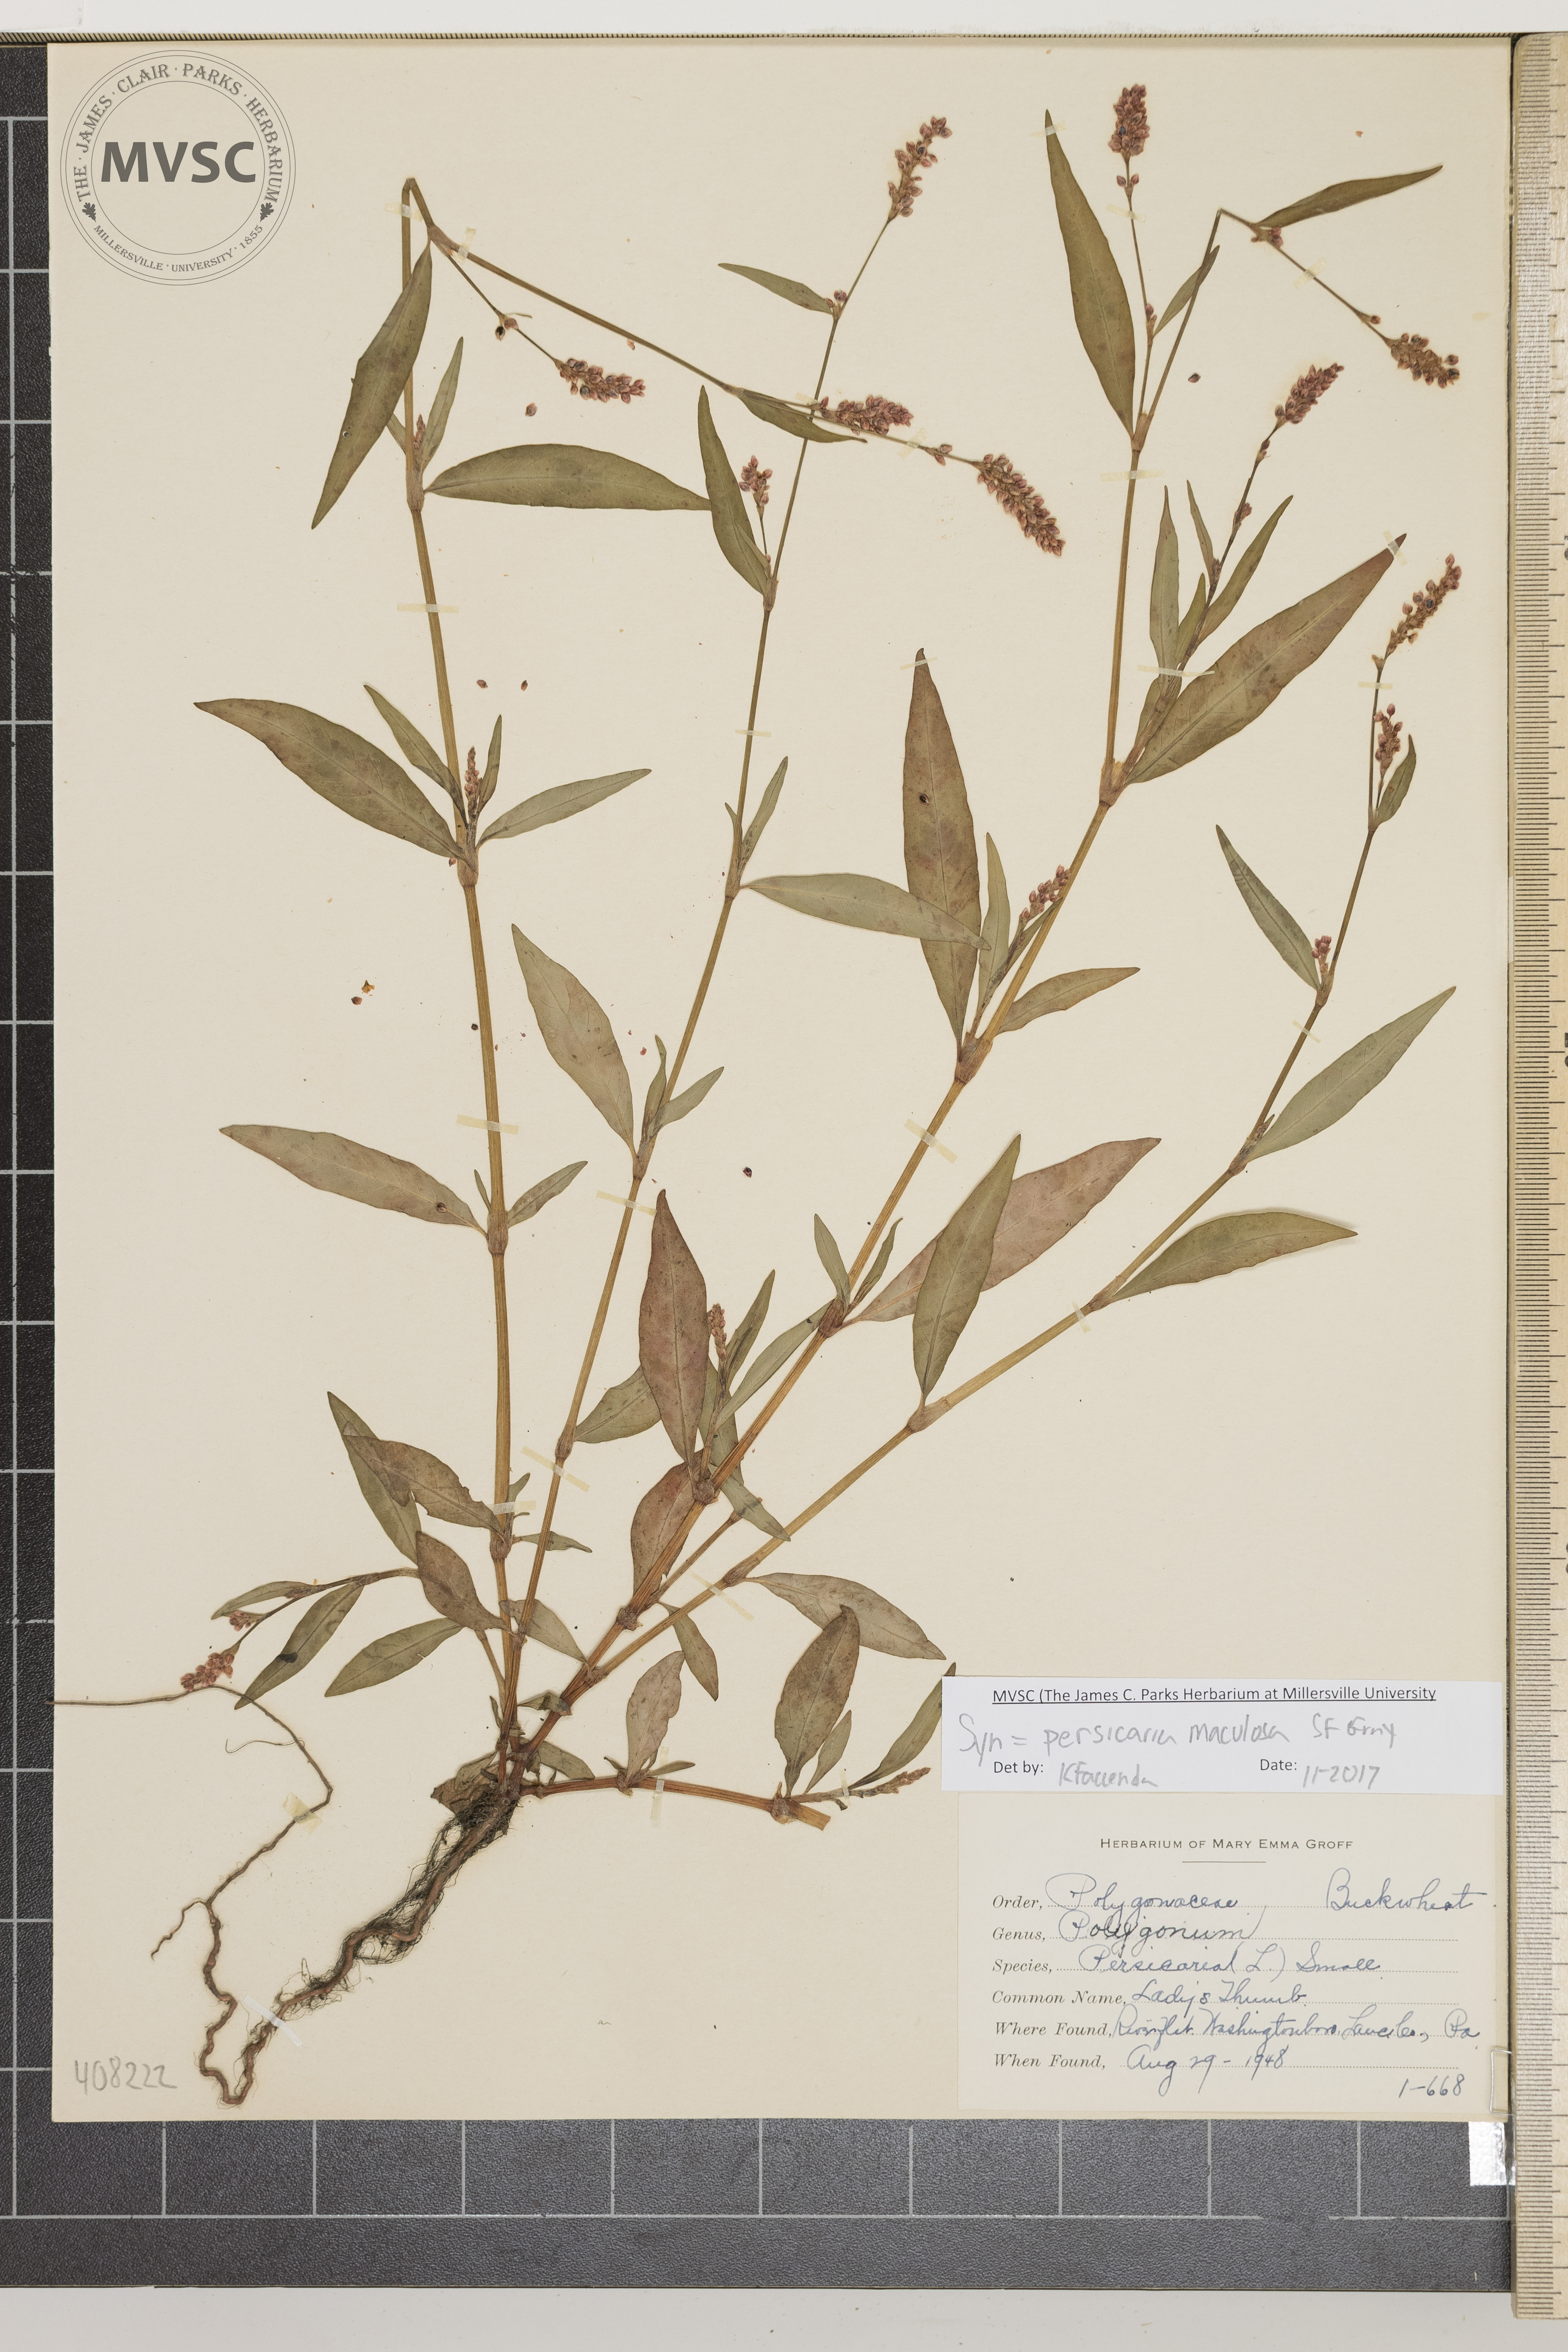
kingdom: Plantae
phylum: Tracheophyta
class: Magnoliopsida
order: Caryophyllales
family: Polygonaceae
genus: Persicaria
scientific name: Persicaria maculosa
